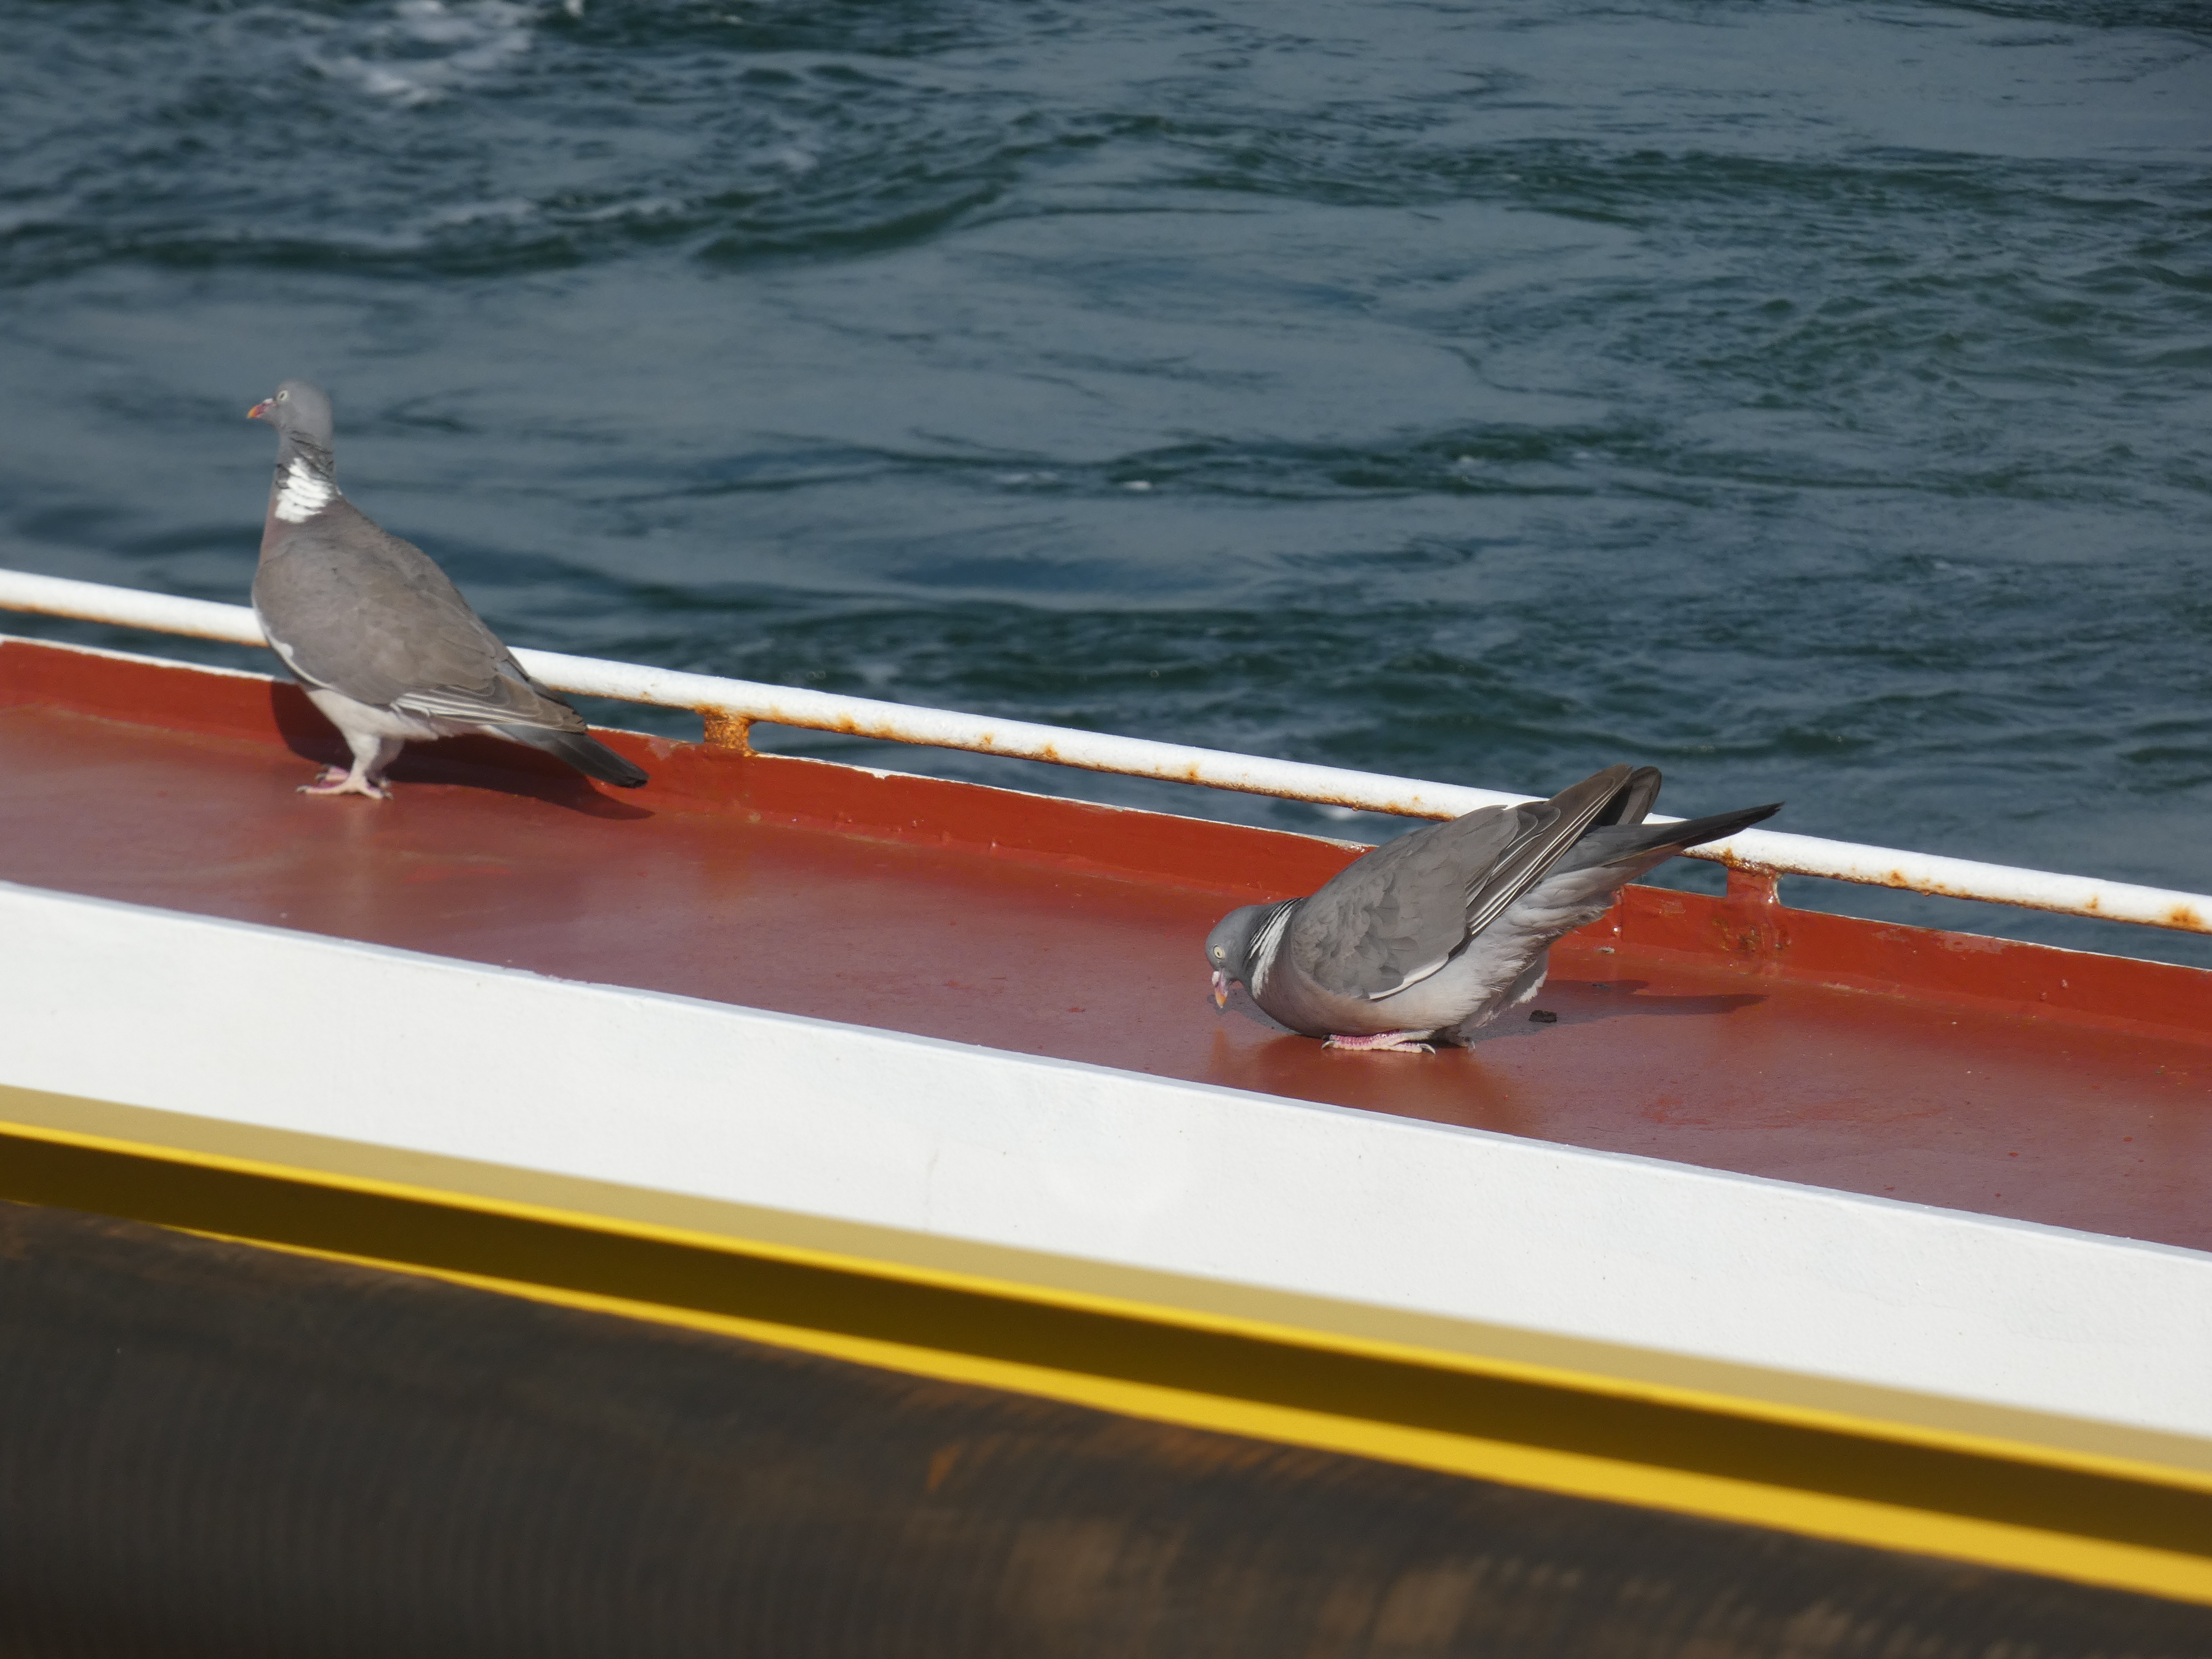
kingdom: Animalia
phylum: Chordata
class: Aves
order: Columbiformes
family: Columbidae
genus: Columba
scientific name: Columba palumbus
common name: Ringdue
